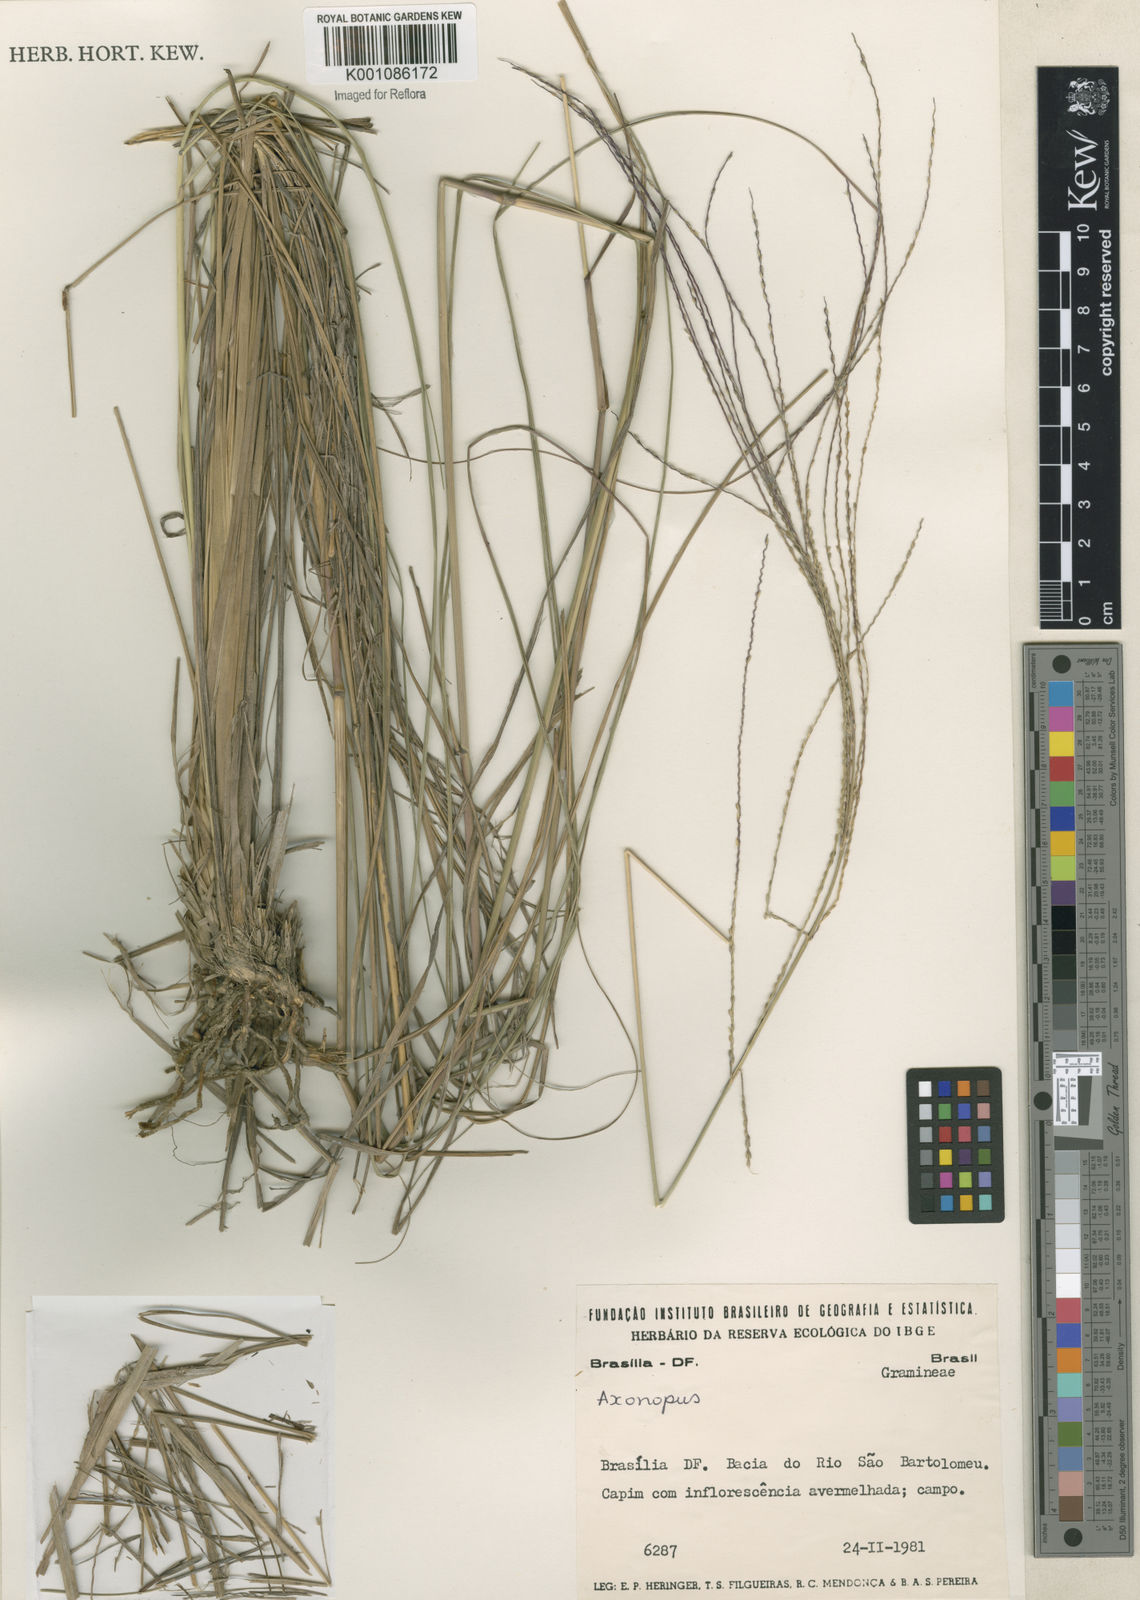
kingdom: Plantae
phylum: Tracheophyta
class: Liliopsida
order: Poales
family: Poaceae
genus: Axonopus
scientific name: Axonopus
